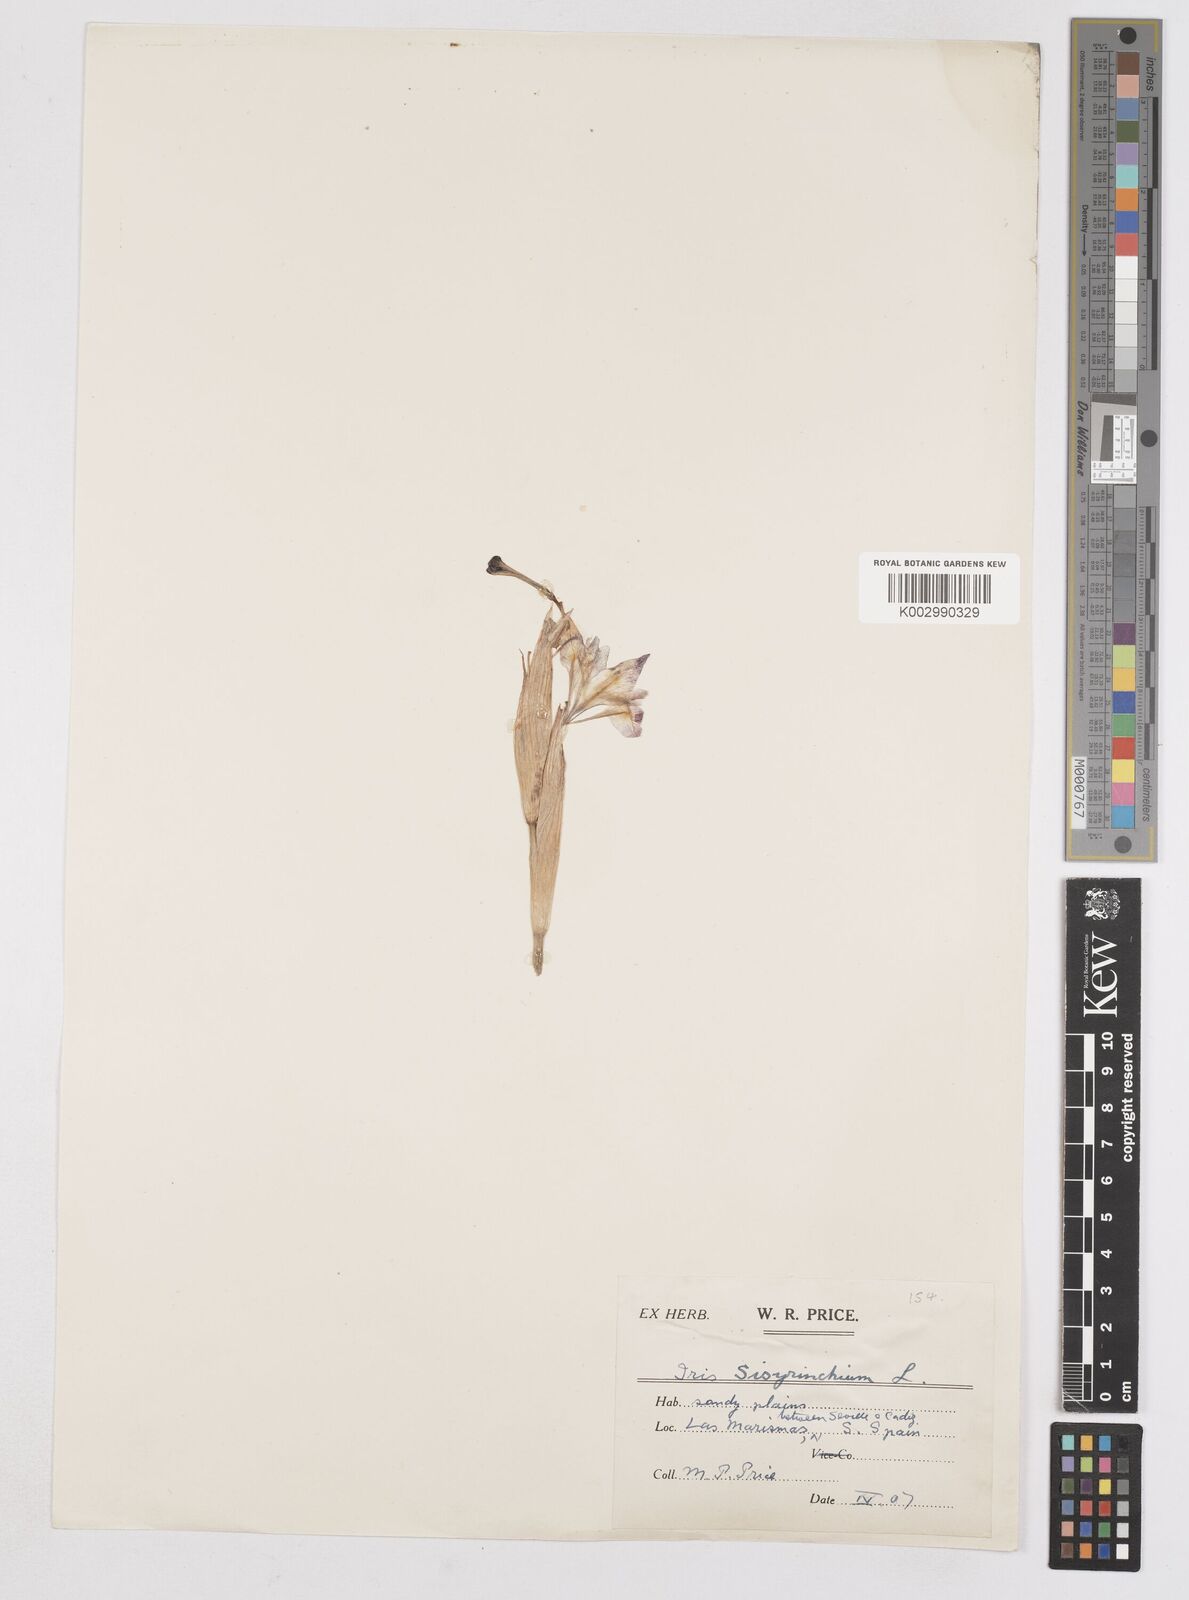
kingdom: Plantae
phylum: Tracheophyta
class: Liliopsida
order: Asparagales
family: Iridaceae
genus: Moraea
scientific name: Moraea sisyrinchium
